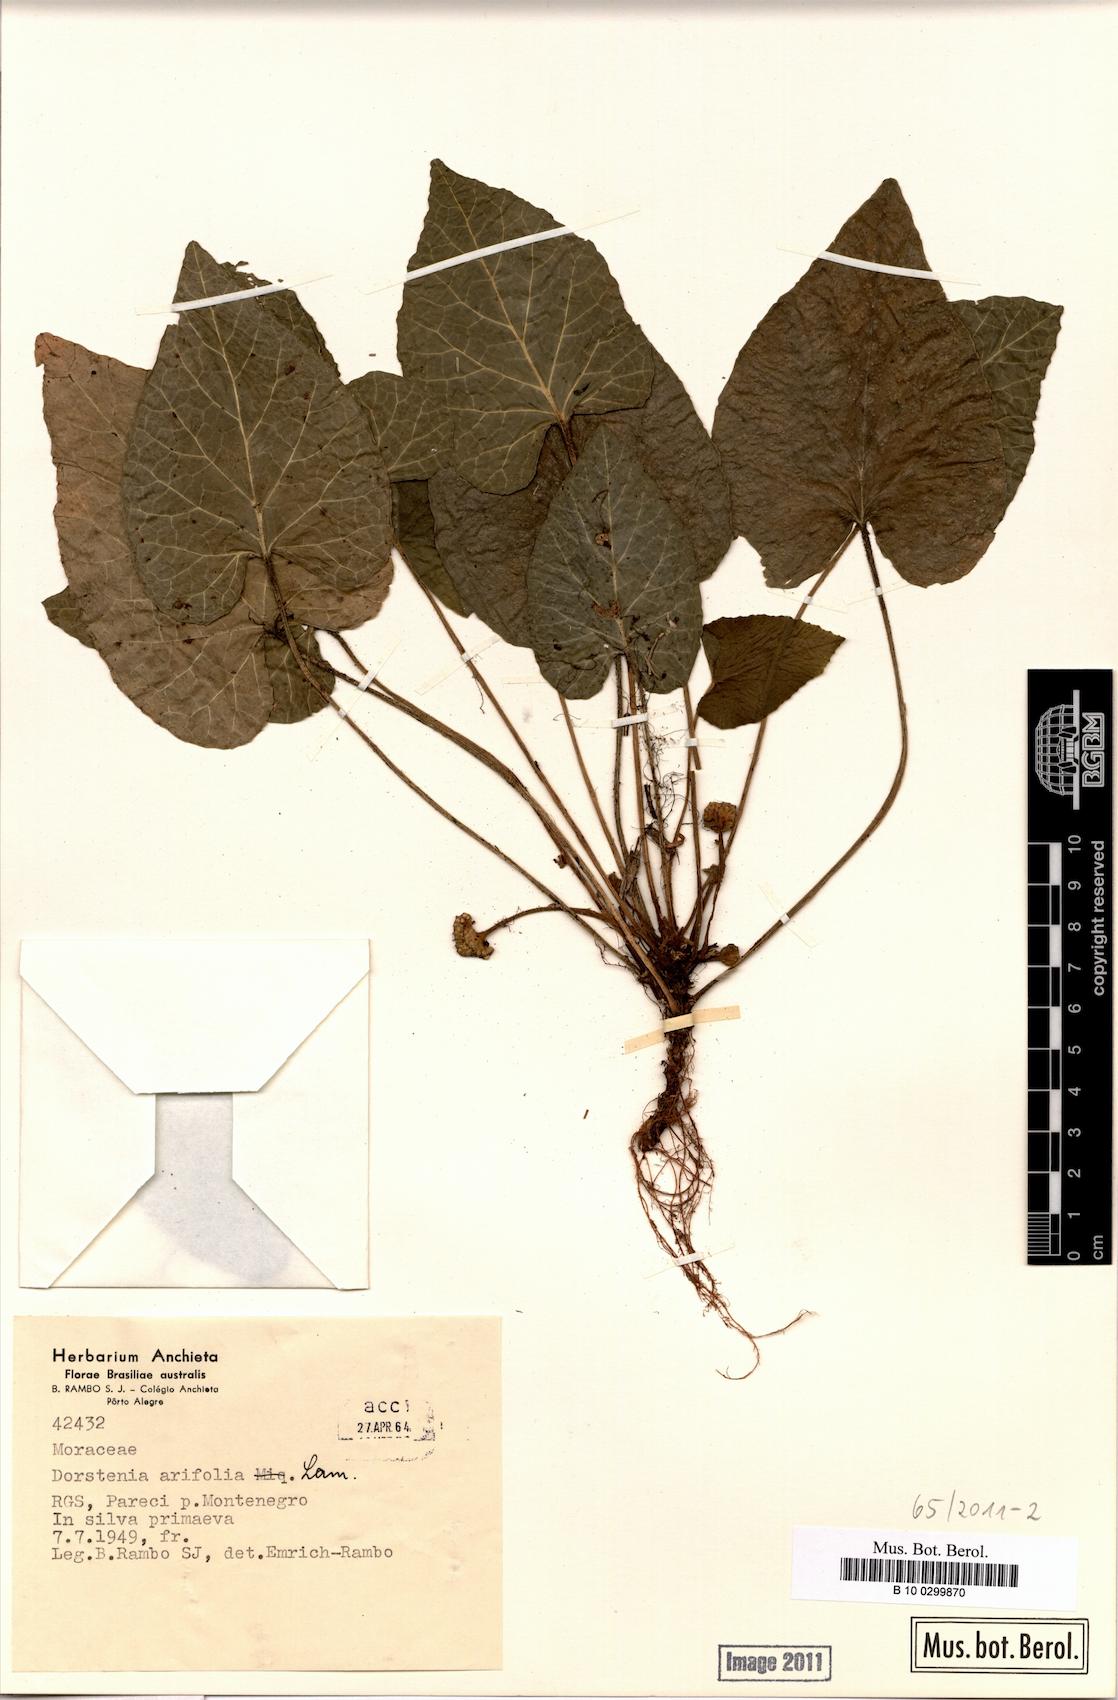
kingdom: Plantae
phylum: Tracheophyta
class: Magnoliopsida
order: Rosales
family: Moraceae
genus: Dorstenia
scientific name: Dorstenia arifolia
